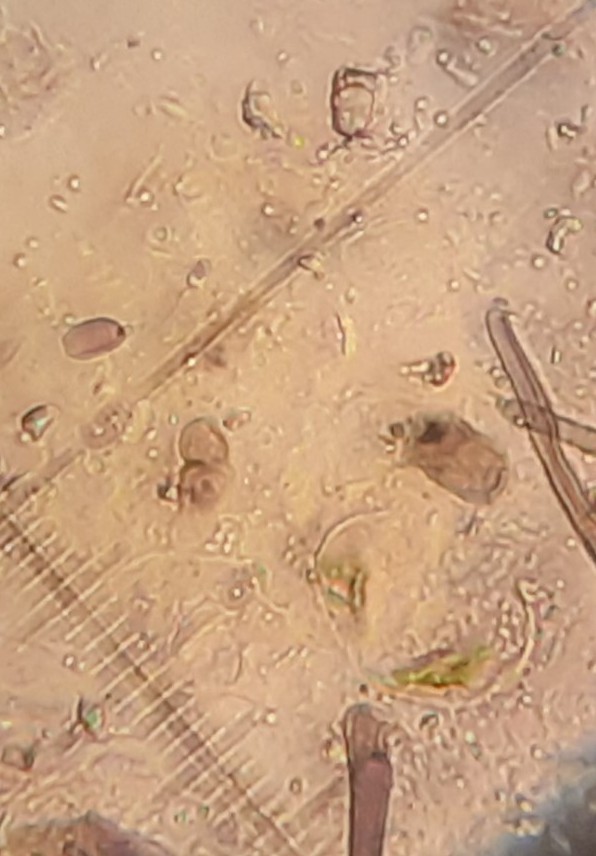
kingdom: Fungi
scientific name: Fungi
